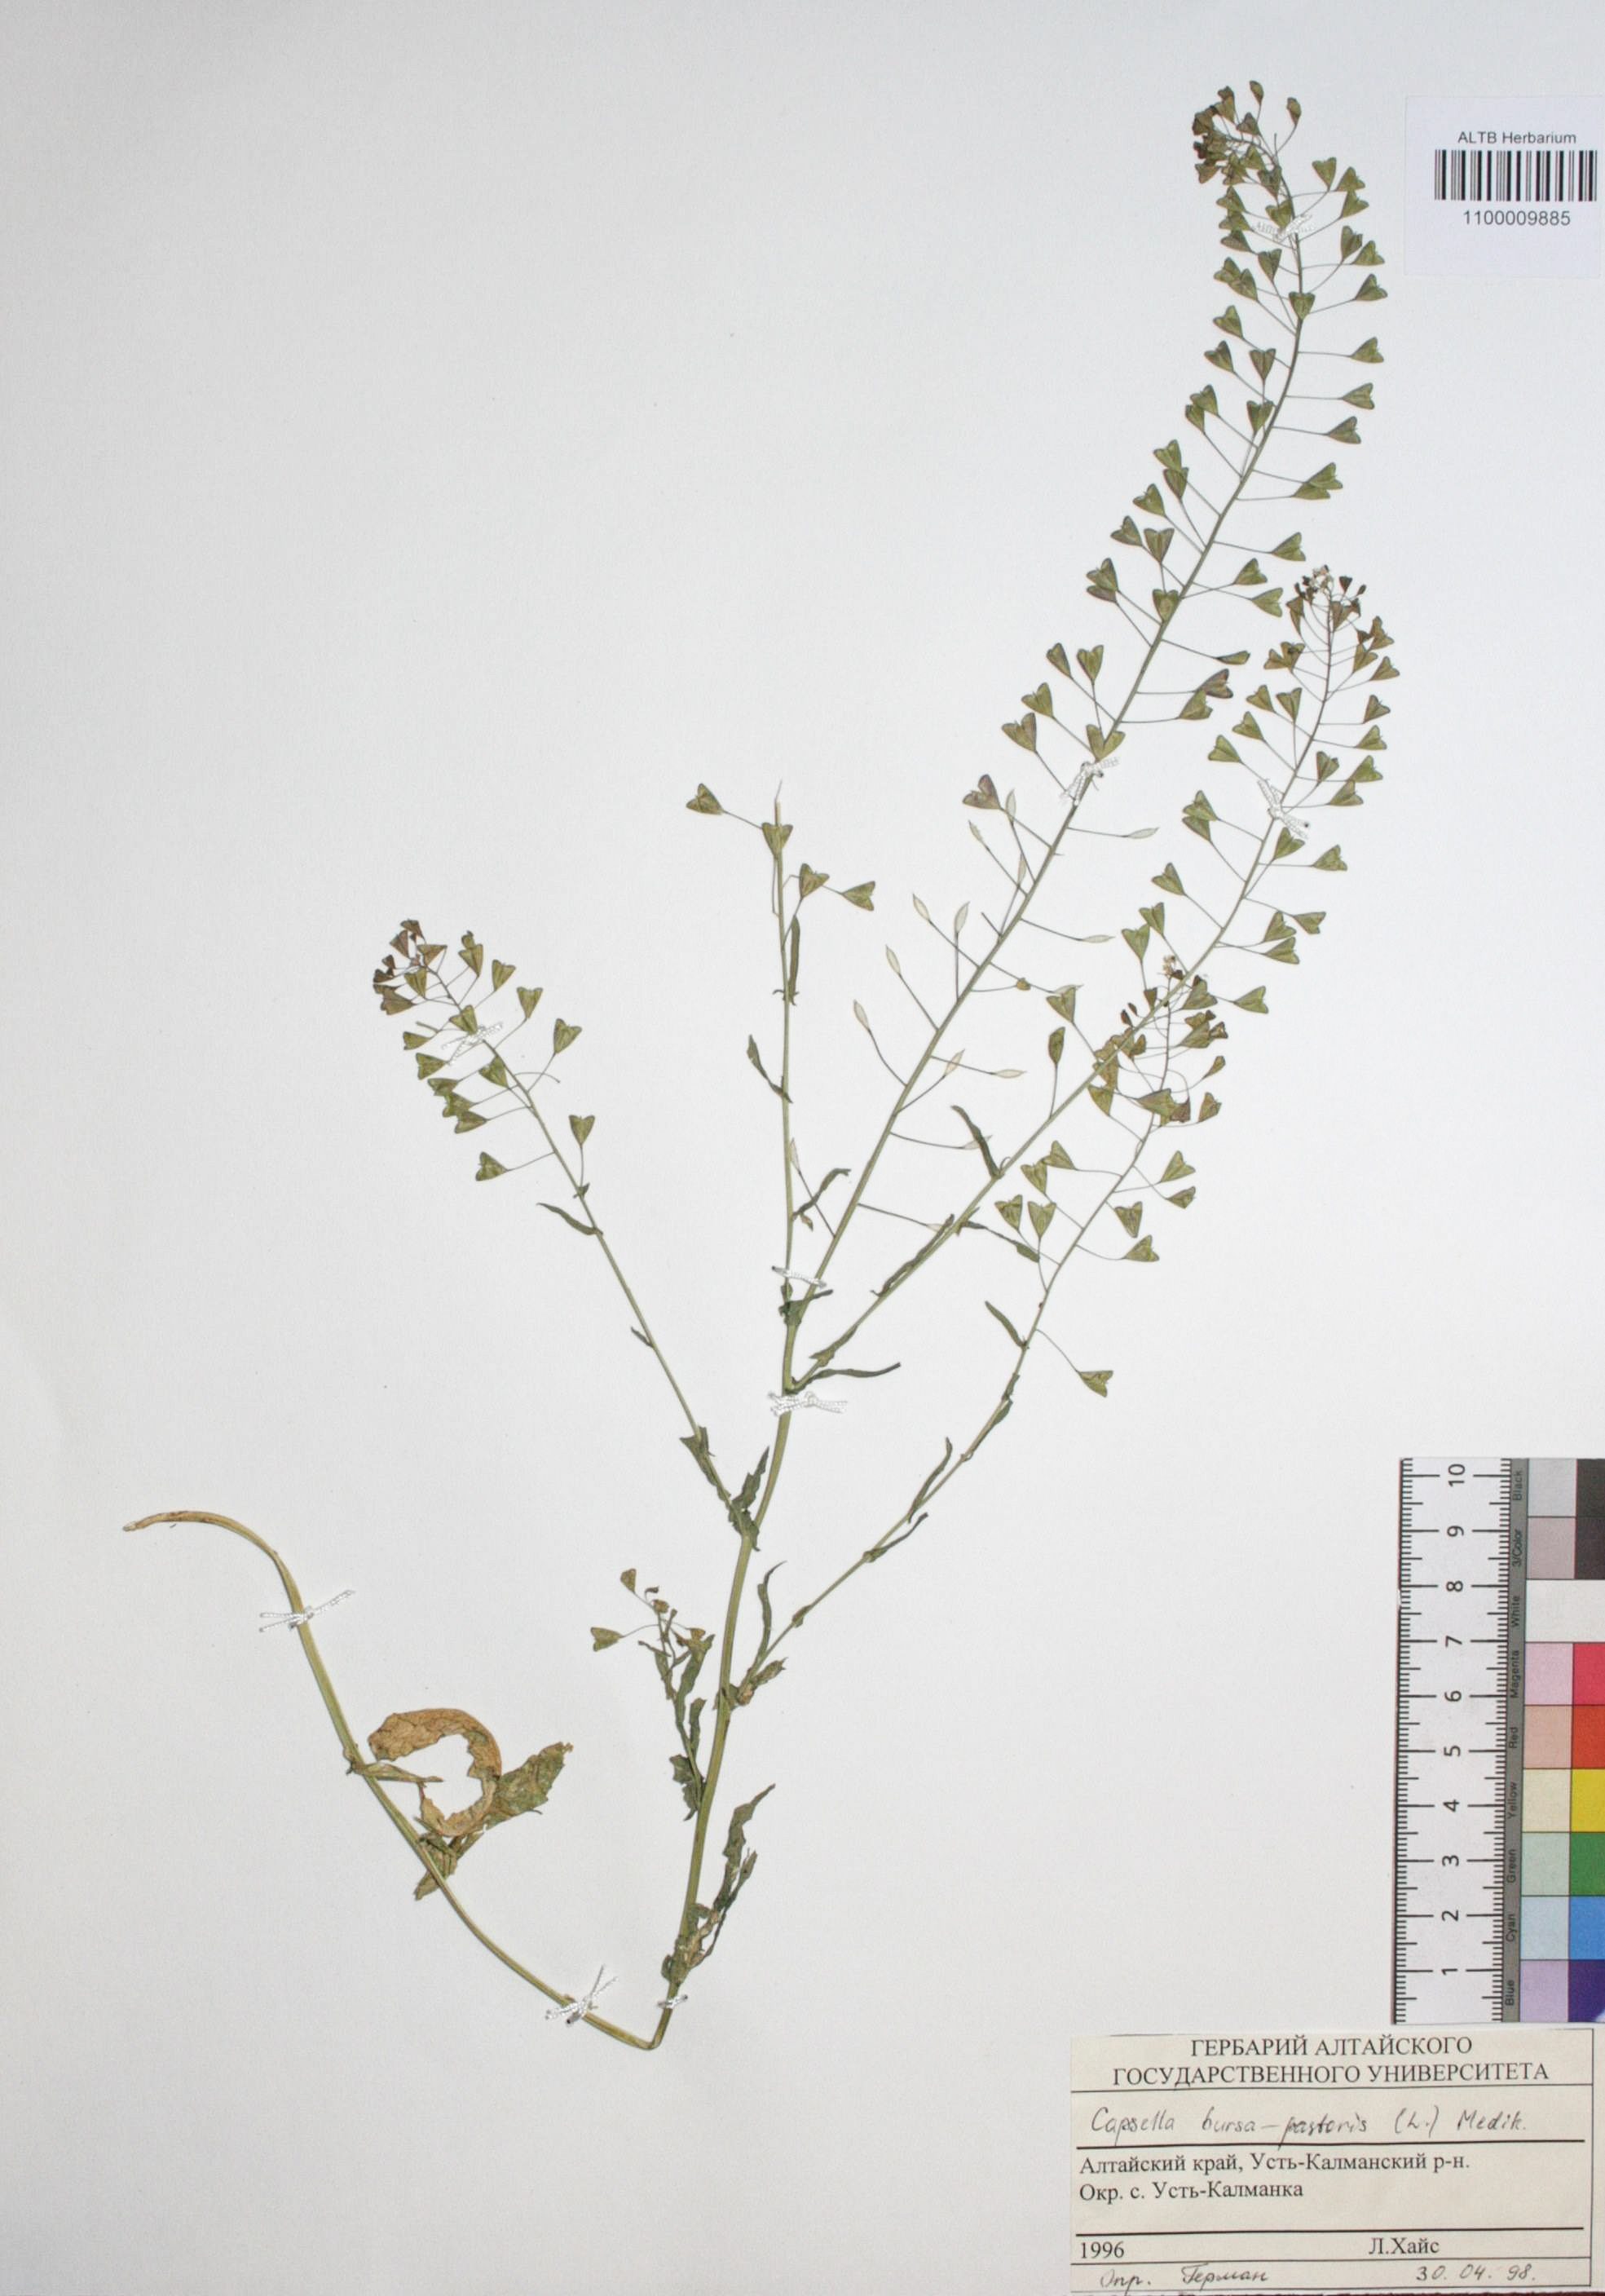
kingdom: Plantae
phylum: Tracheophyta
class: Magnoliopsida
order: Brassicales
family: Brassicaceae
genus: Capsella
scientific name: Capsella bursa-pastoris
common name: Shepherd's purse
